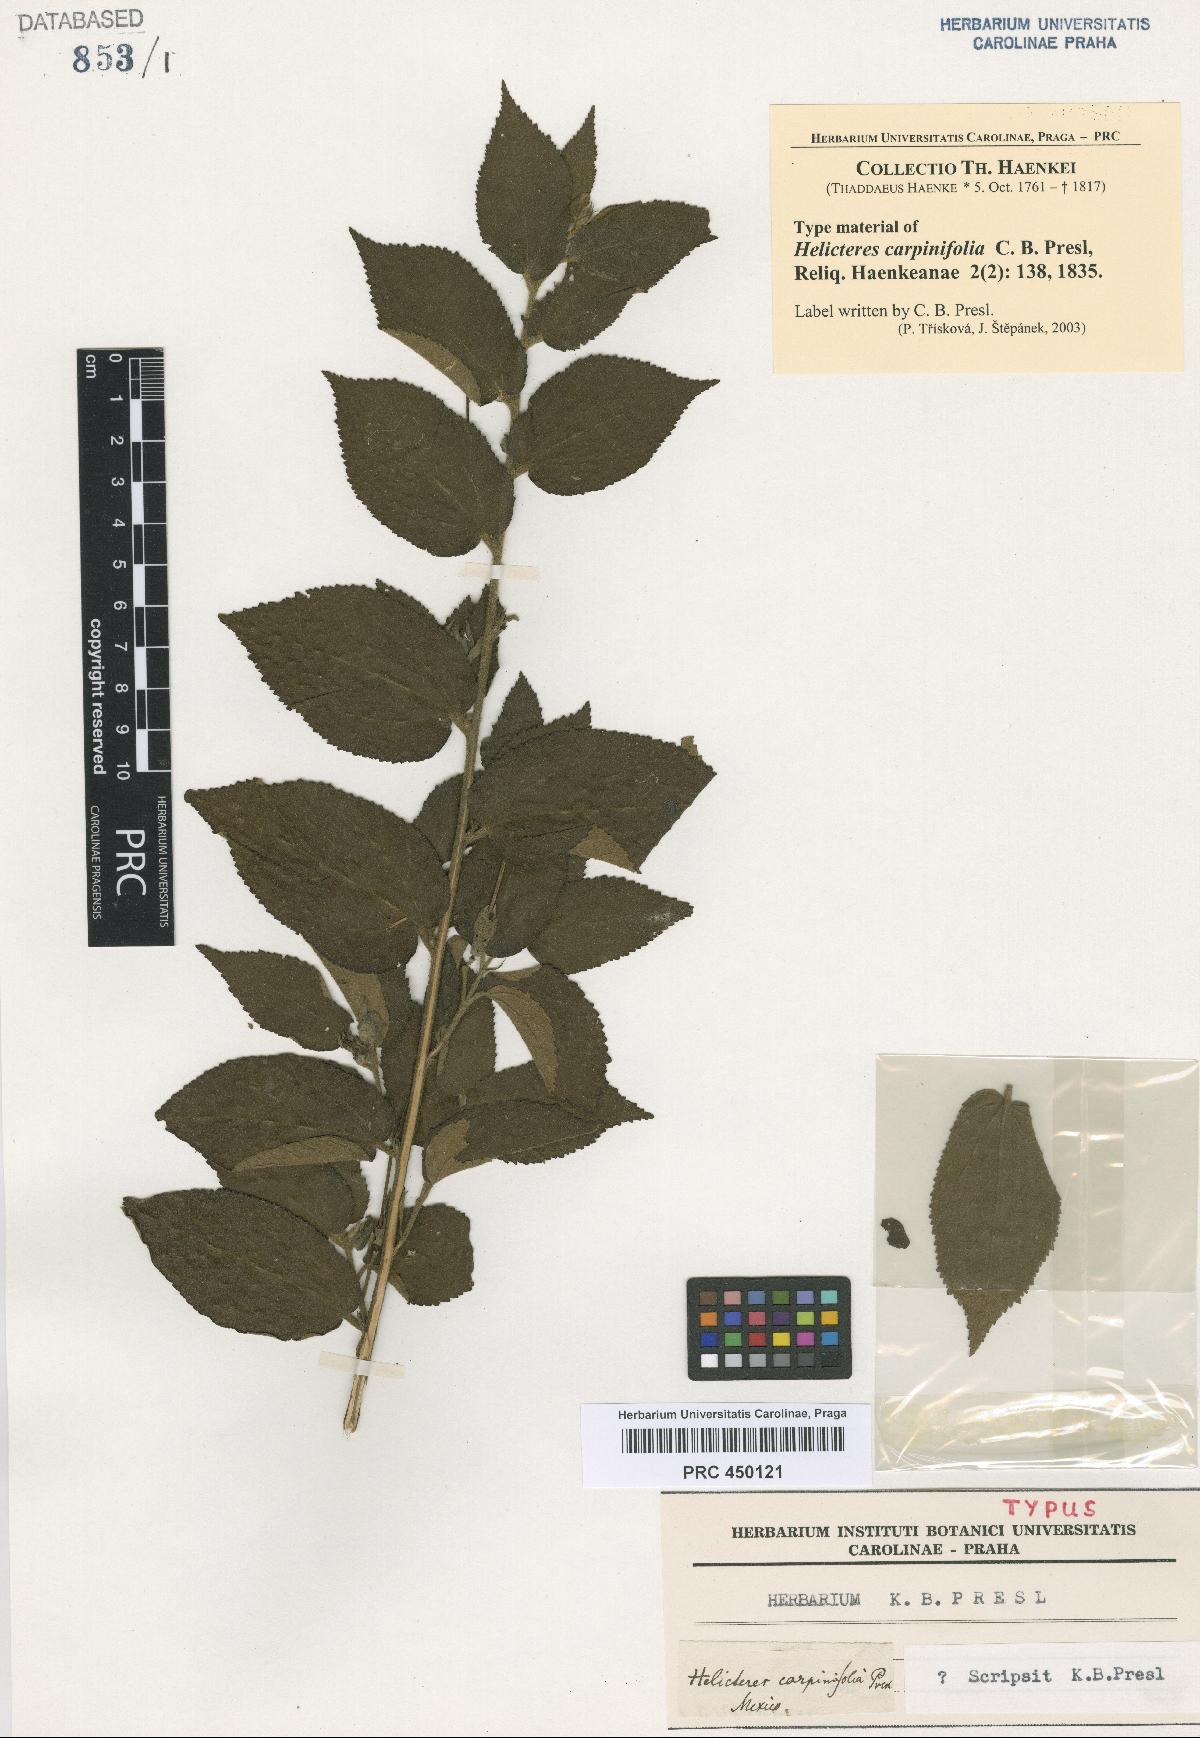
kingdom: Plantae
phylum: Tracheophyta
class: Magnoliopsida
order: Malvales
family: Malvaceae
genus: Helicteres
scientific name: Helicteres guazumifolia
